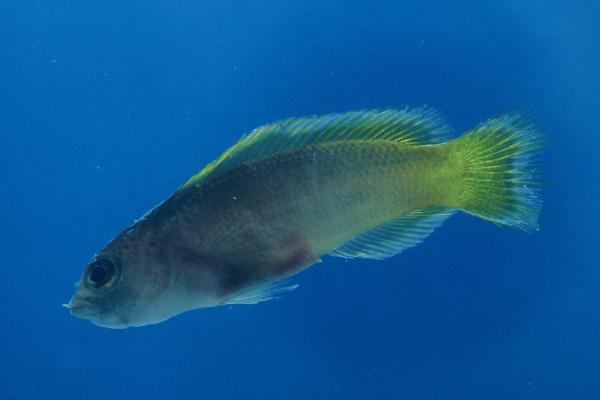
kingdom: Animalia
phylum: Chordata
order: Perciformes
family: Pseudochromidae
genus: Pseudochromis
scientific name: Pseudochromis kristinae
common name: Lipstick dottyback
